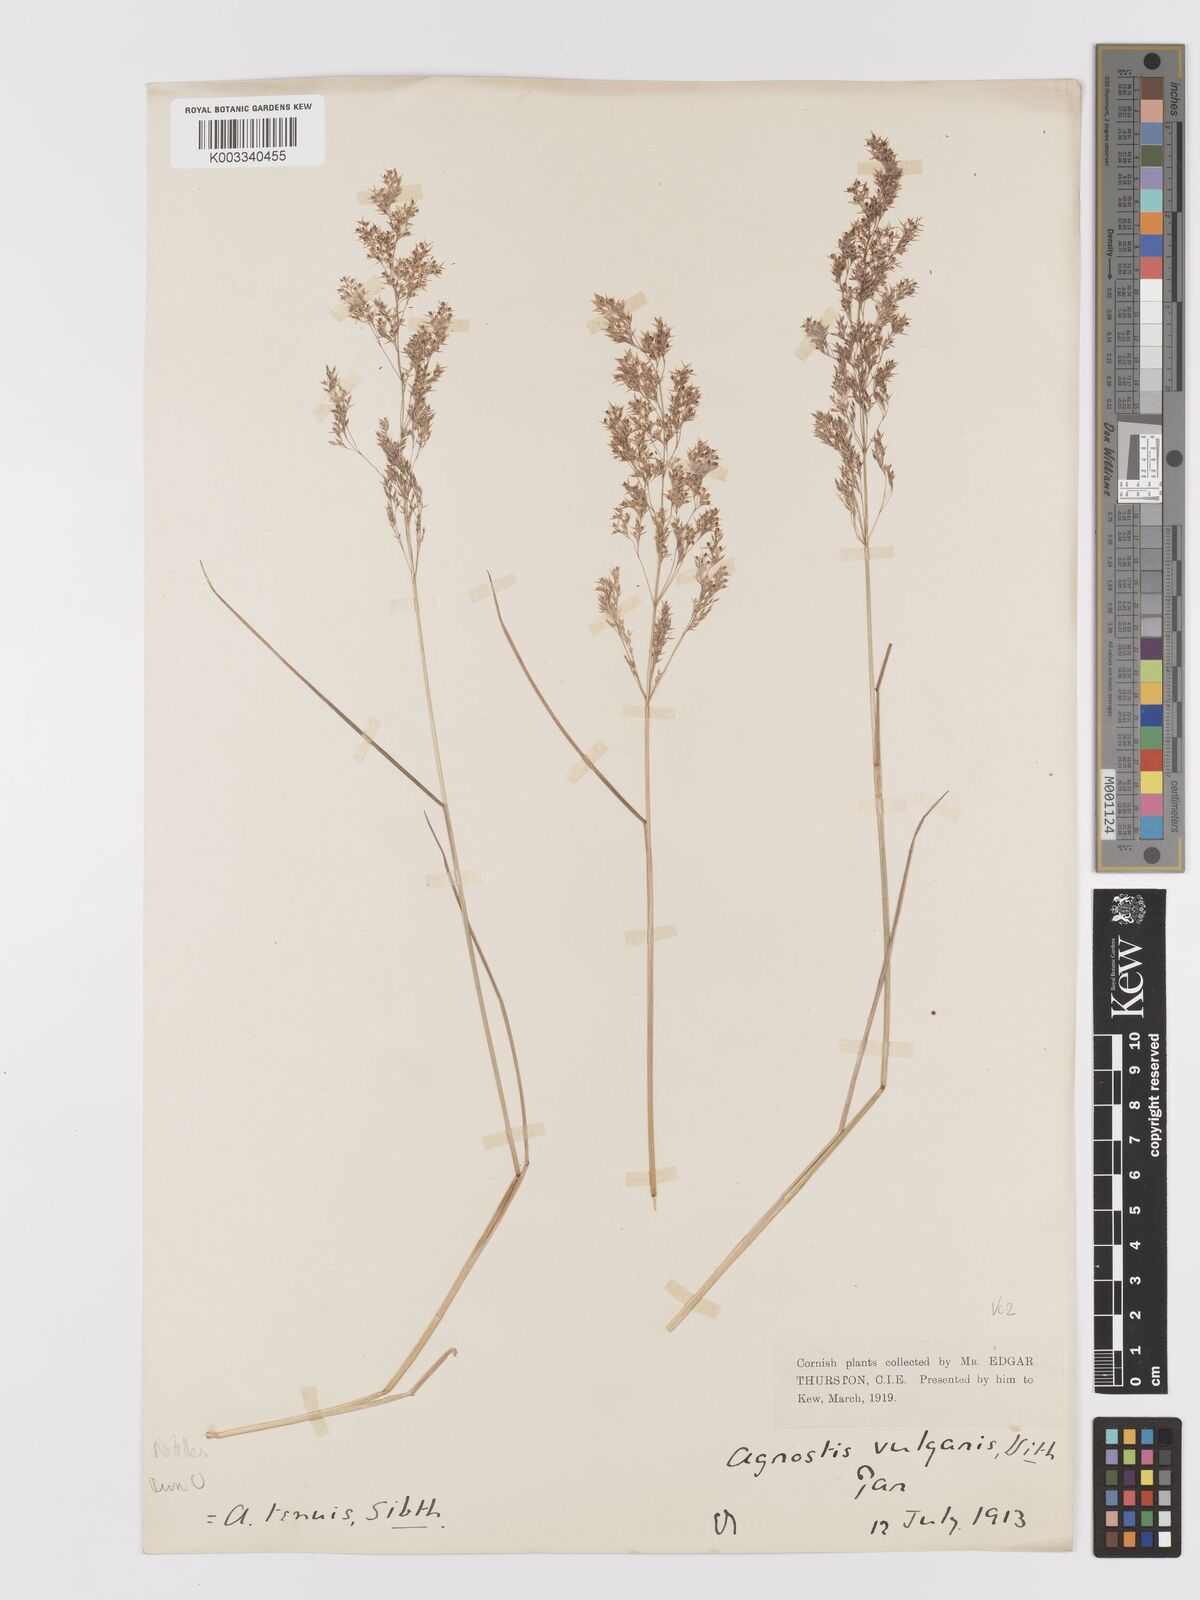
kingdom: Plantae
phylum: Tracheophyta
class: Liliopsida
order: Poales
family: Poaceae
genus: Agrostis
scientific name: Agrostis capillaris
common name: Colonial bentgrass
